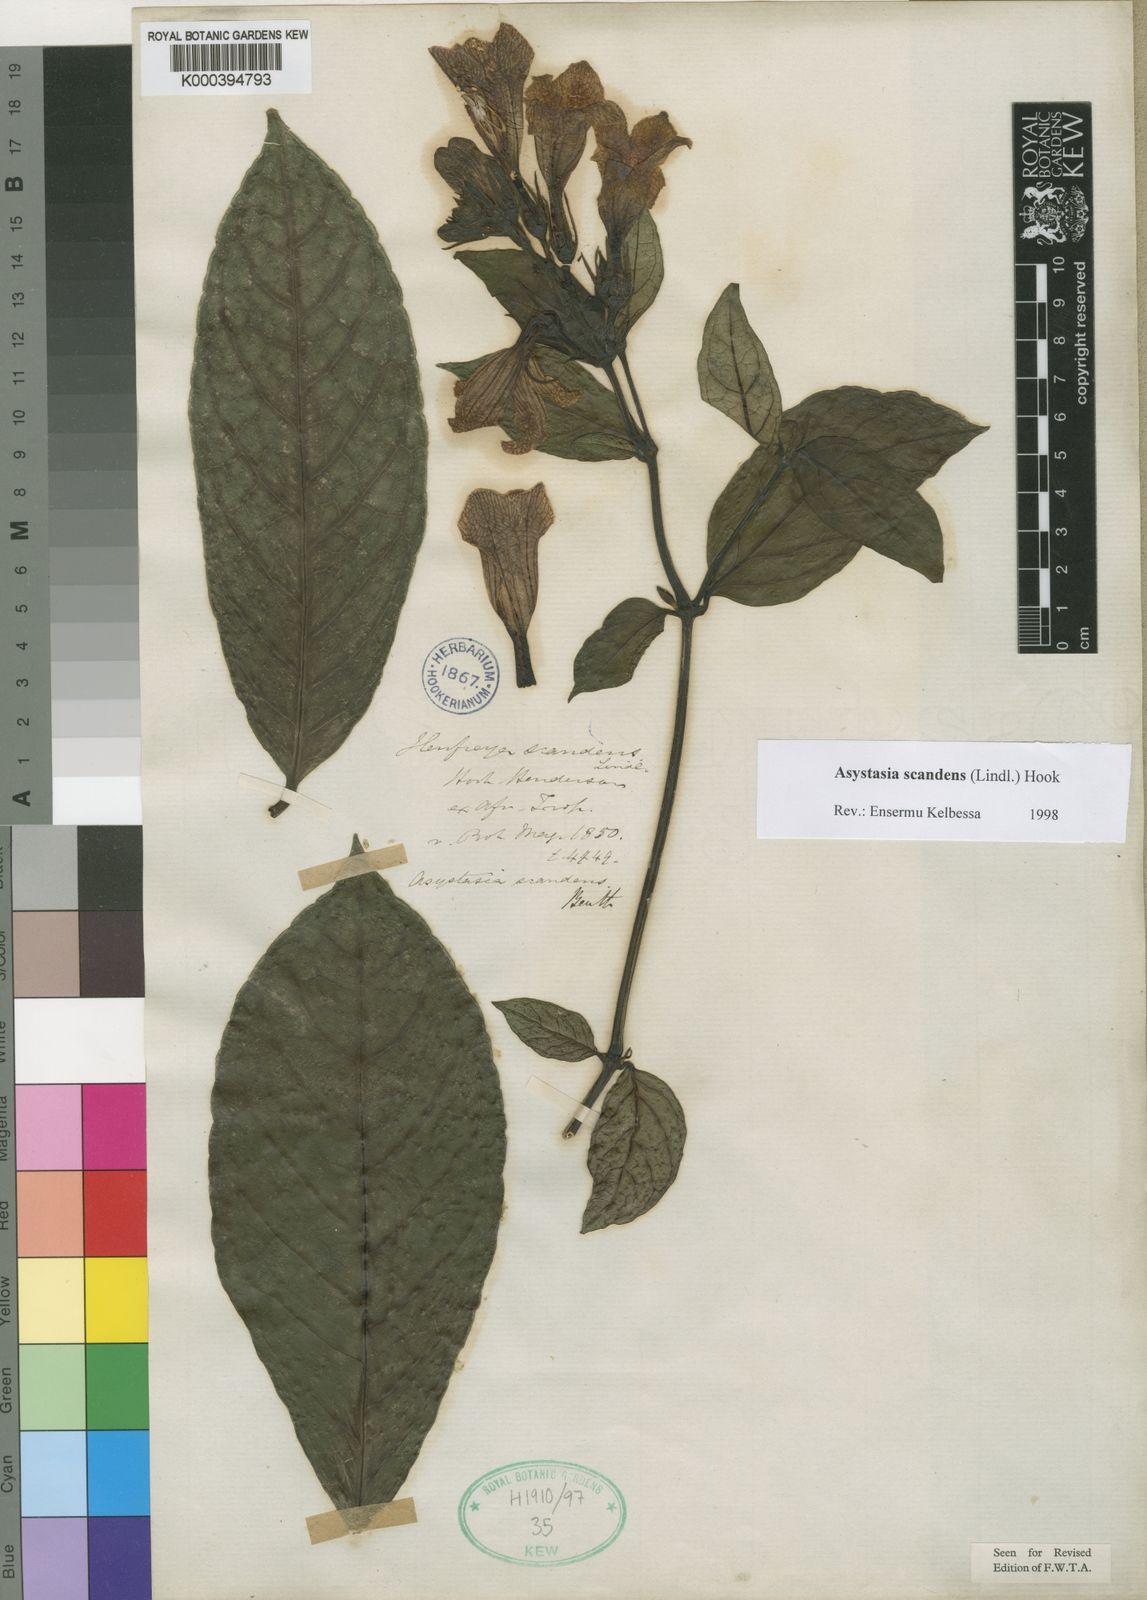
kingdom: Plantae
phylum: Tracheophyta
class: Magnoliopsida
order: Lamiales
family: Acanthaceae
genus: Asystasia
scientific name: Asystasia scandens
